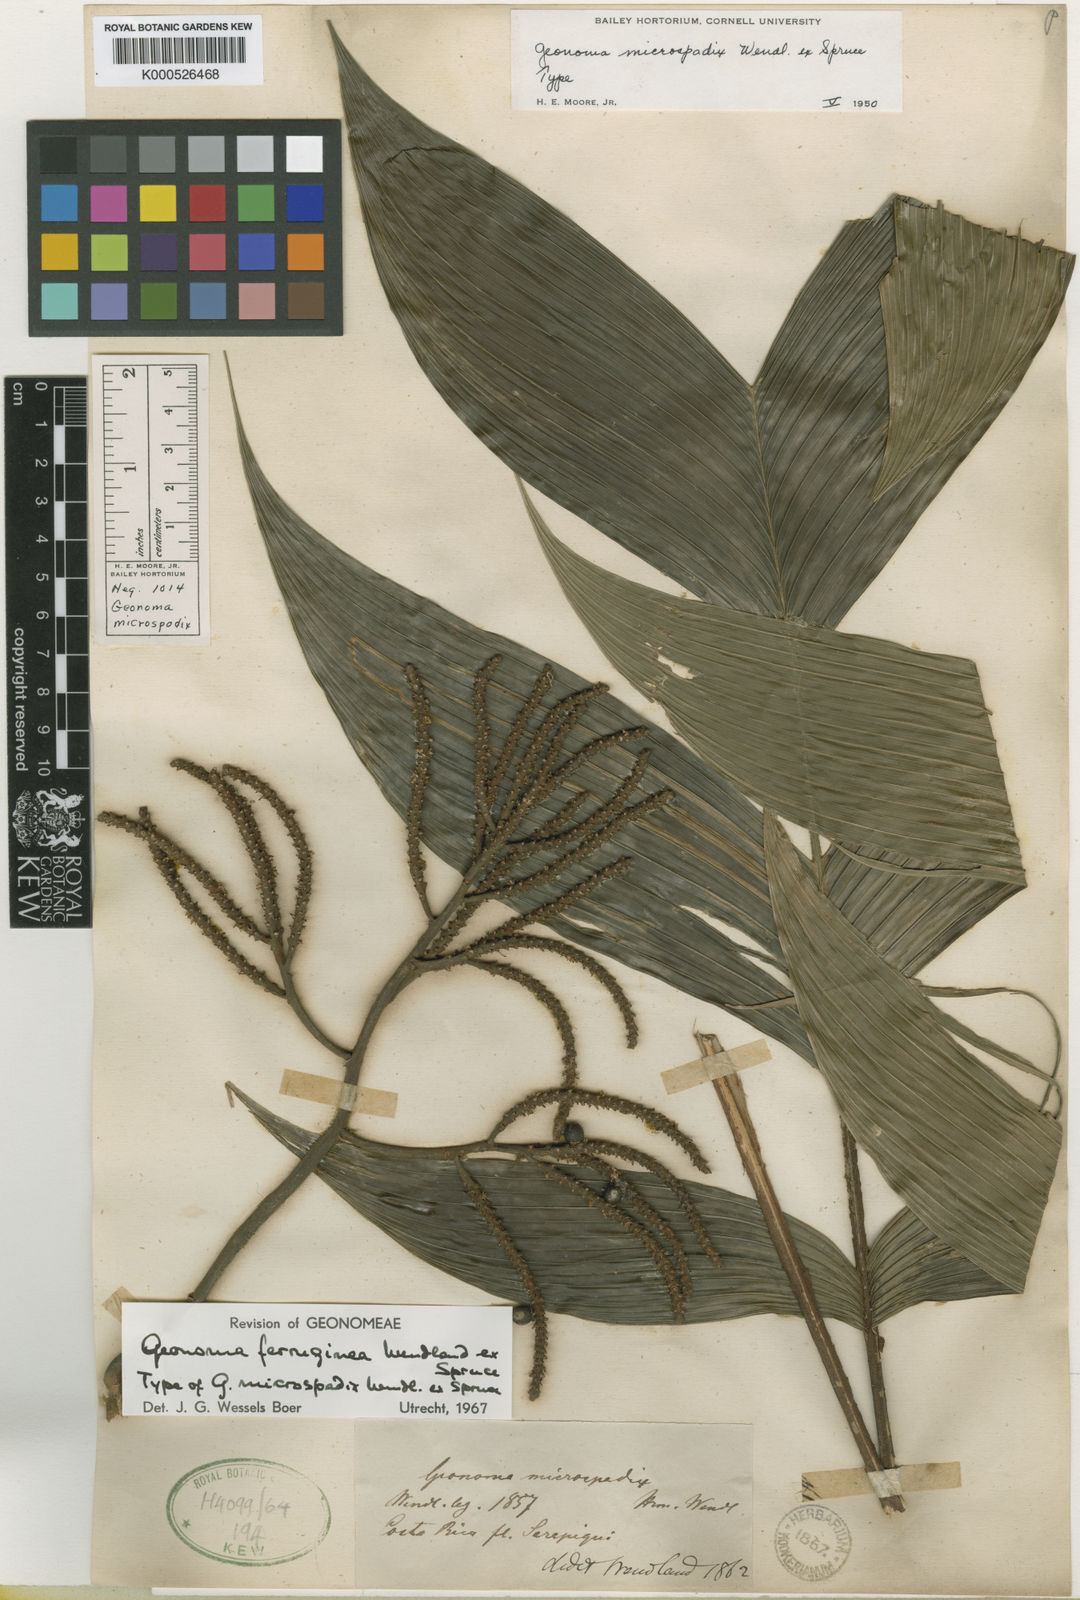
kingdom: Plantae
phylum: Tracheophyta
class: Liliopsida
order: Arecales
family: Arecaceae
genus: Geonoma
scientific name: Geonoma ferruginea
